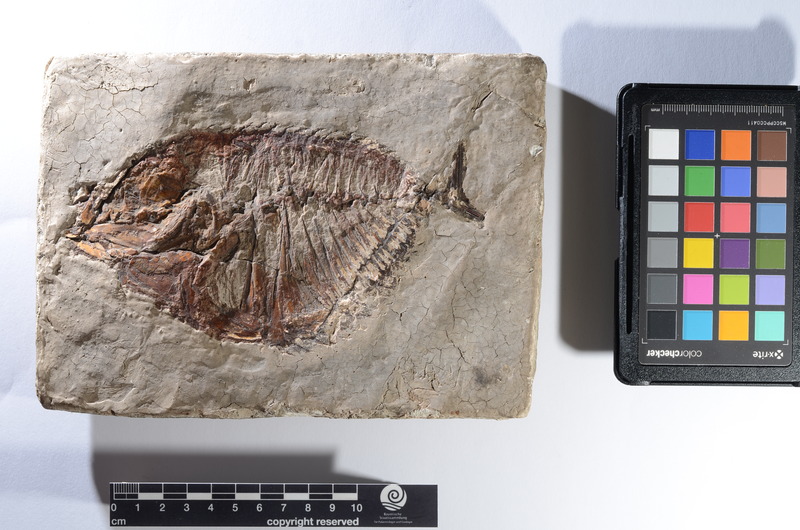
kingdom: Animalia
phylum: Chordata
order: Pleuronectiformes
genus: Amphistium
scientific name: Amphistium
